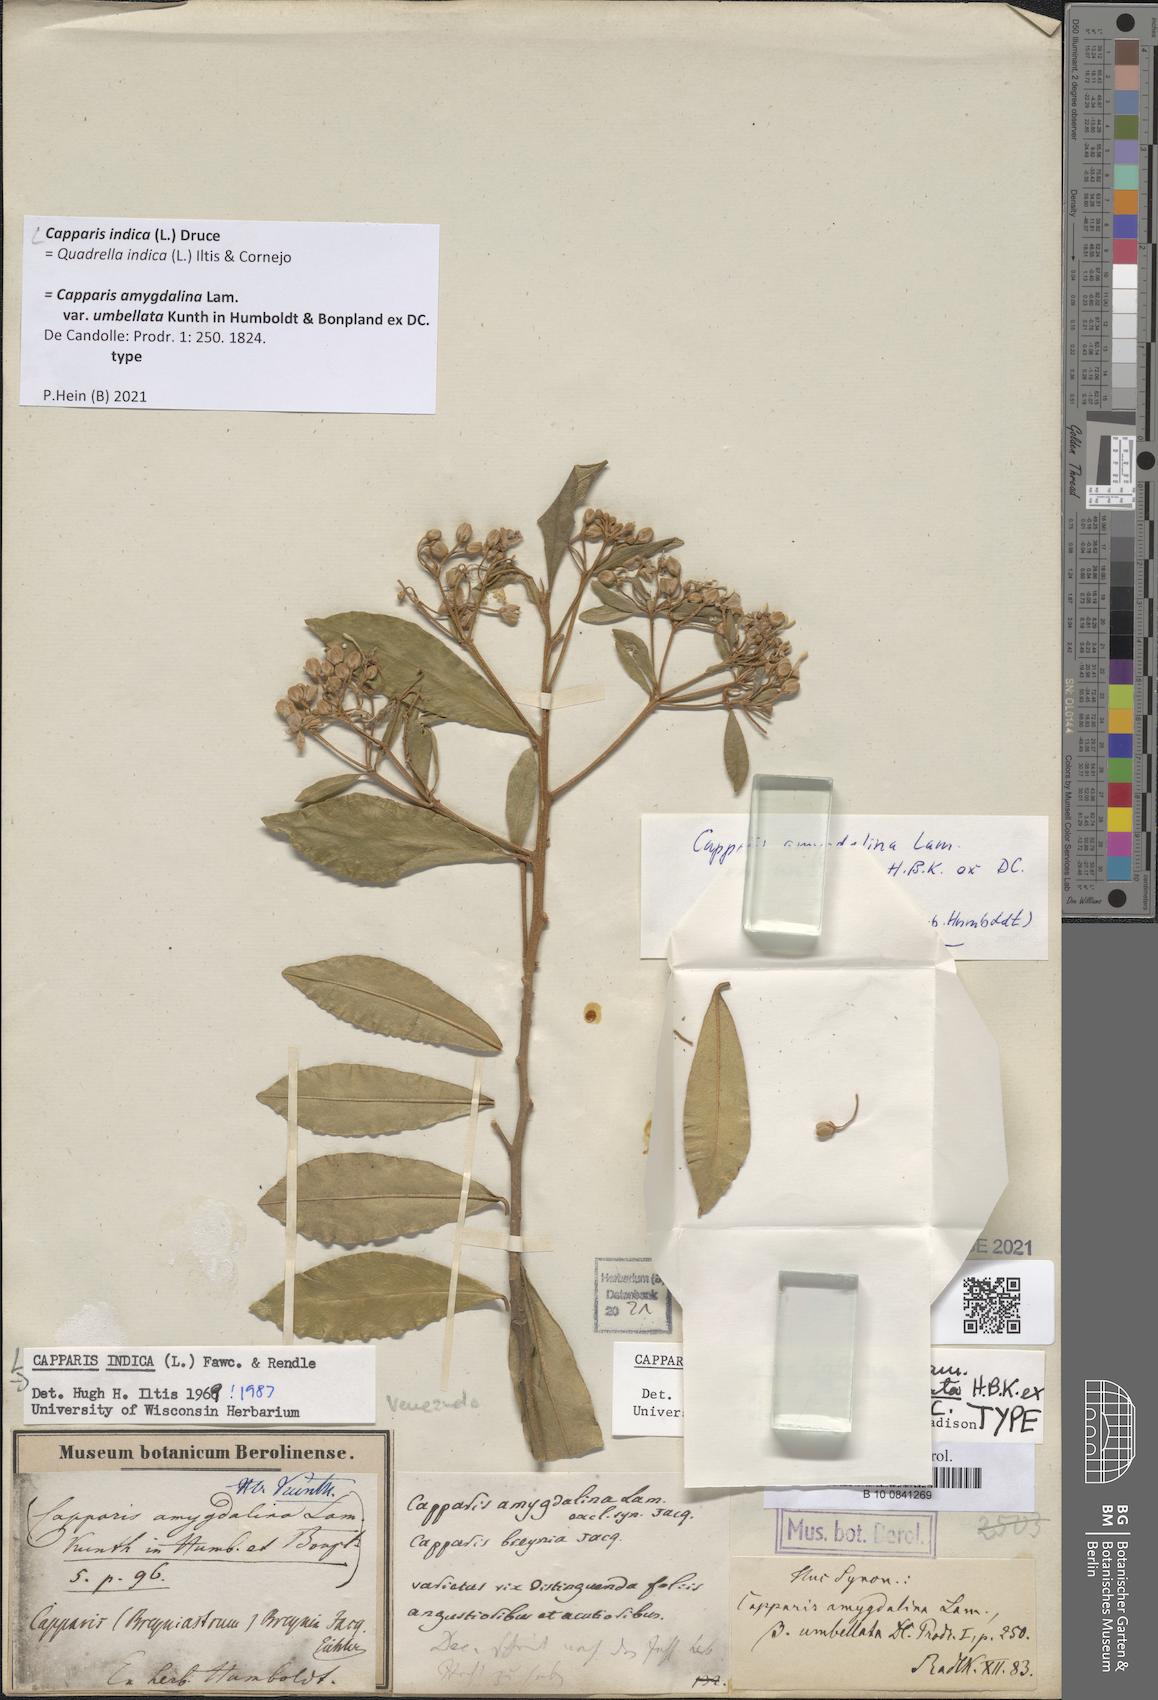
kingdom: Plantae
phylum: Tracheophyta
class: Magnoliopsida
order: Brassicales
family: Capparaceae
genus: Quadrella
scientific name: Quadrella indica
